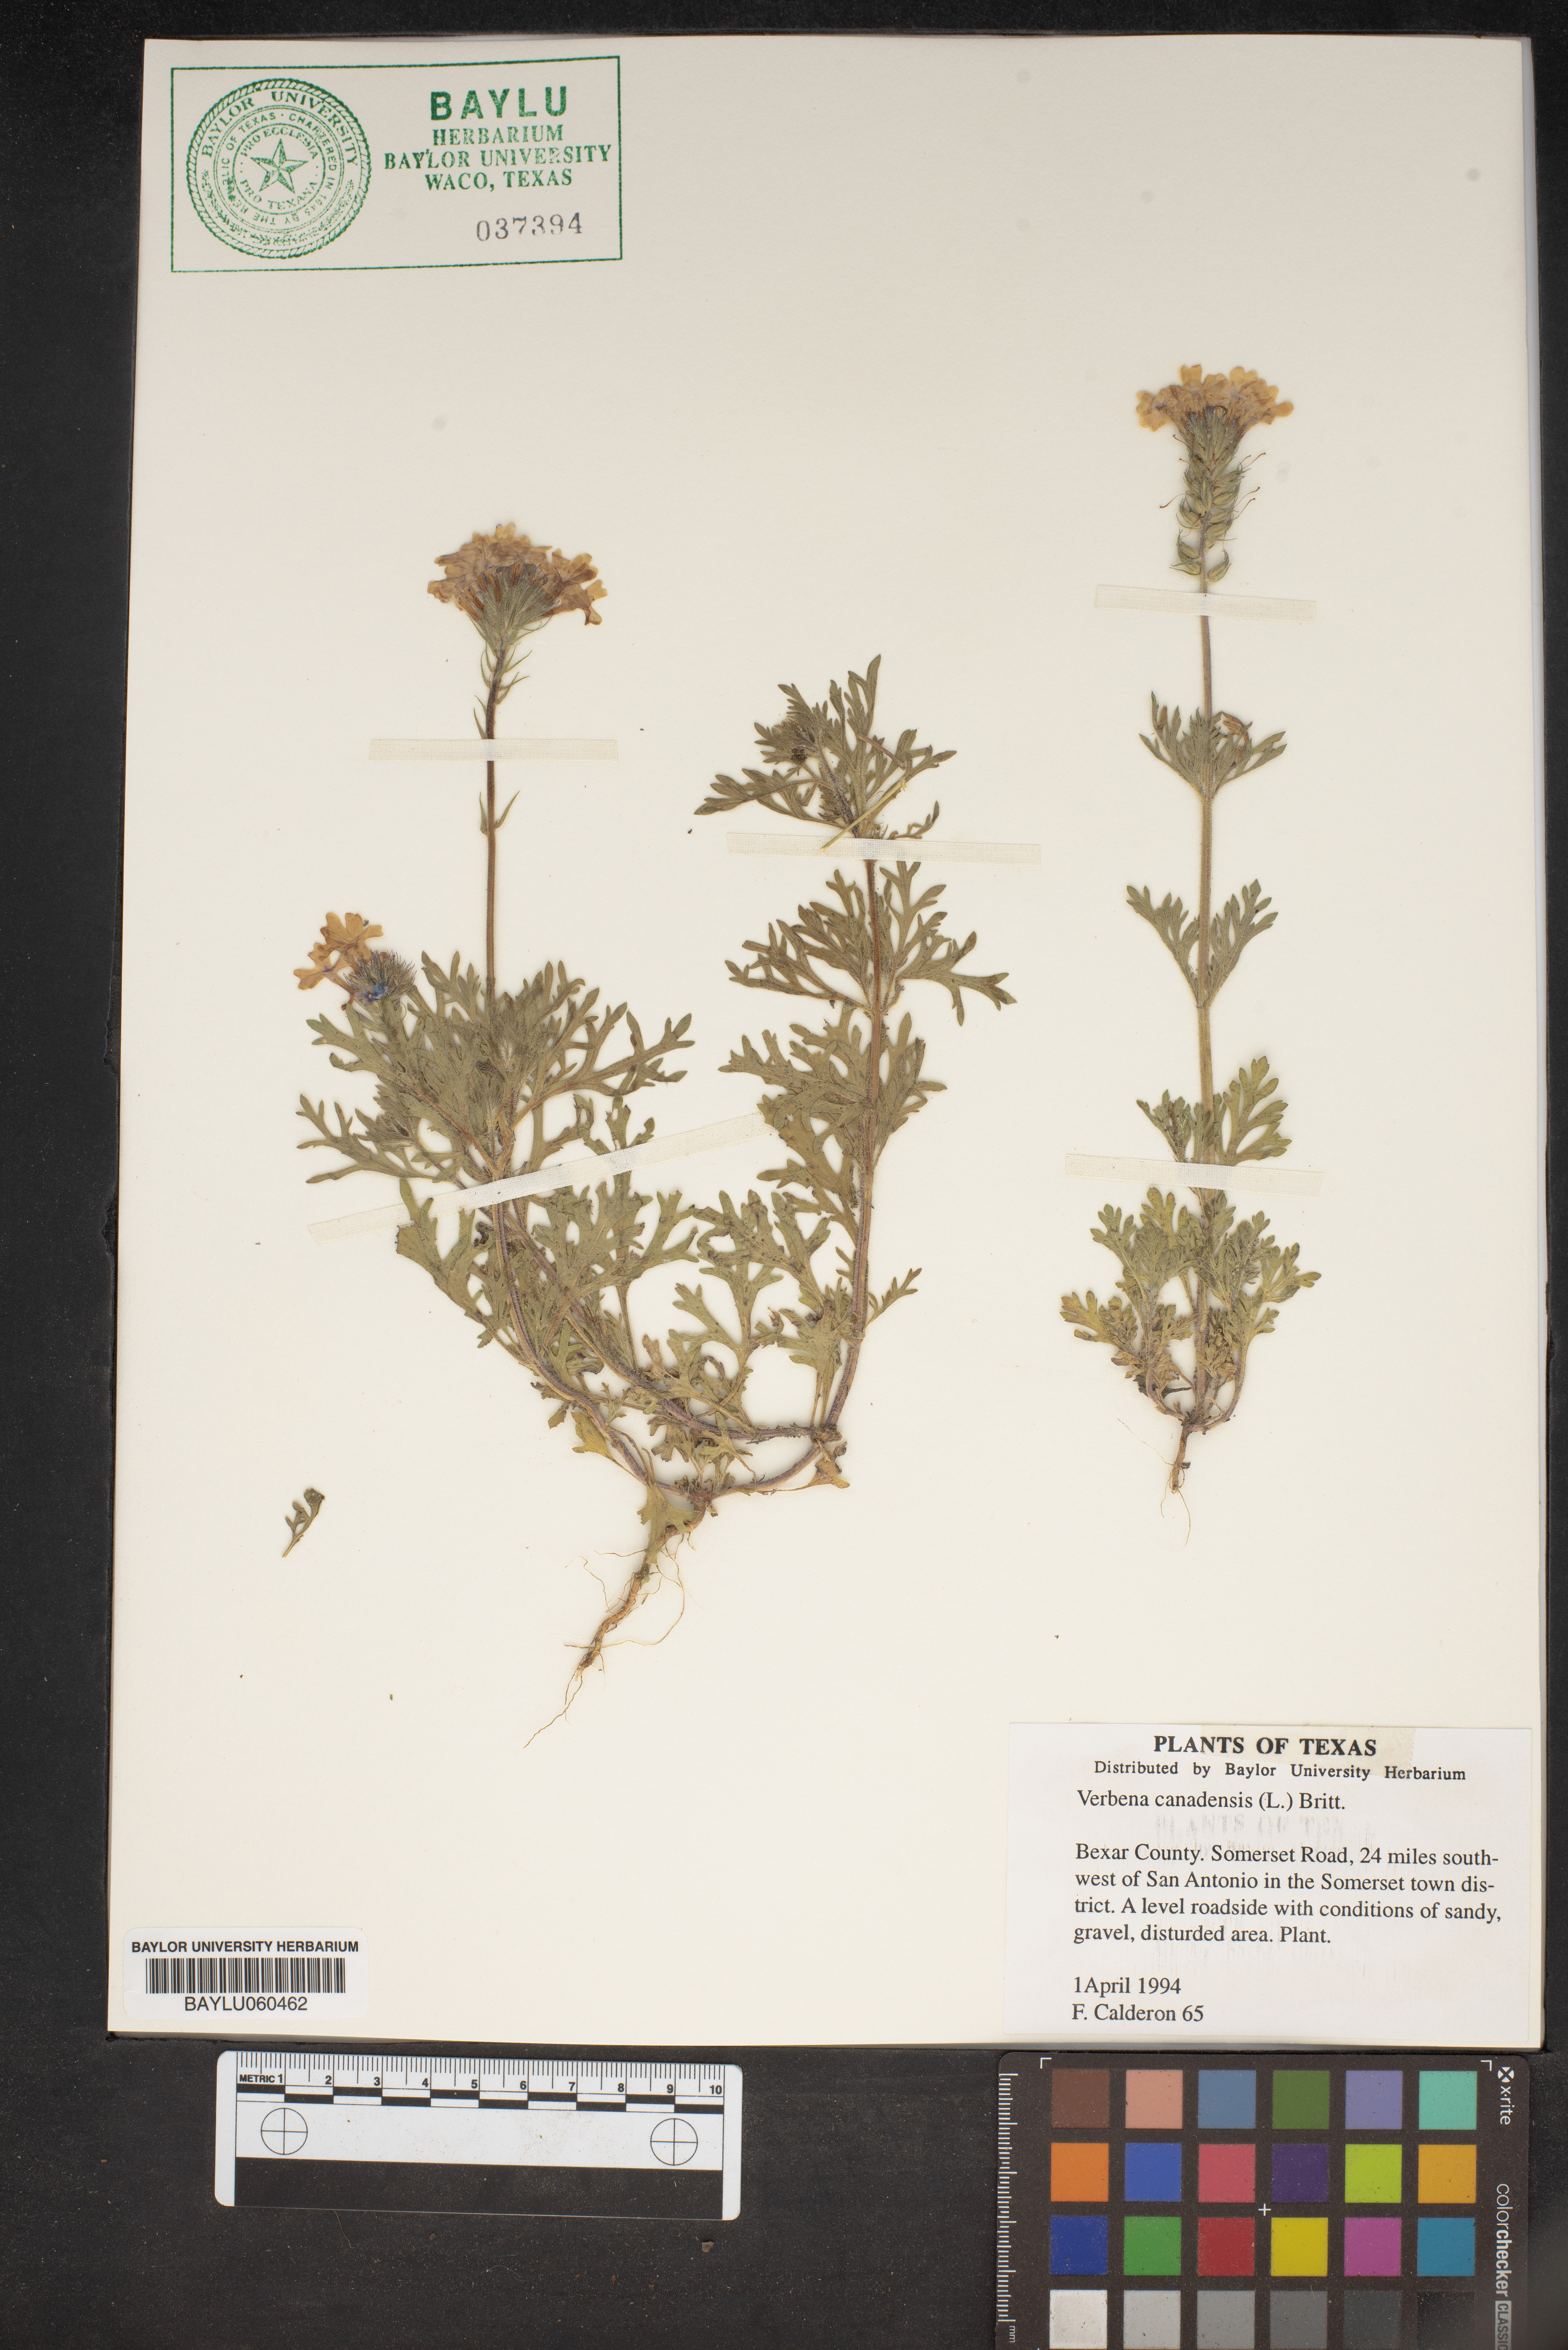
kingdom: Plantae
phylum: Tracheophyta
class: Magnoliopsida
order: Lamiales
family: Verbenaceae
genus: Verbena
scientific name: Verbena canadensis
